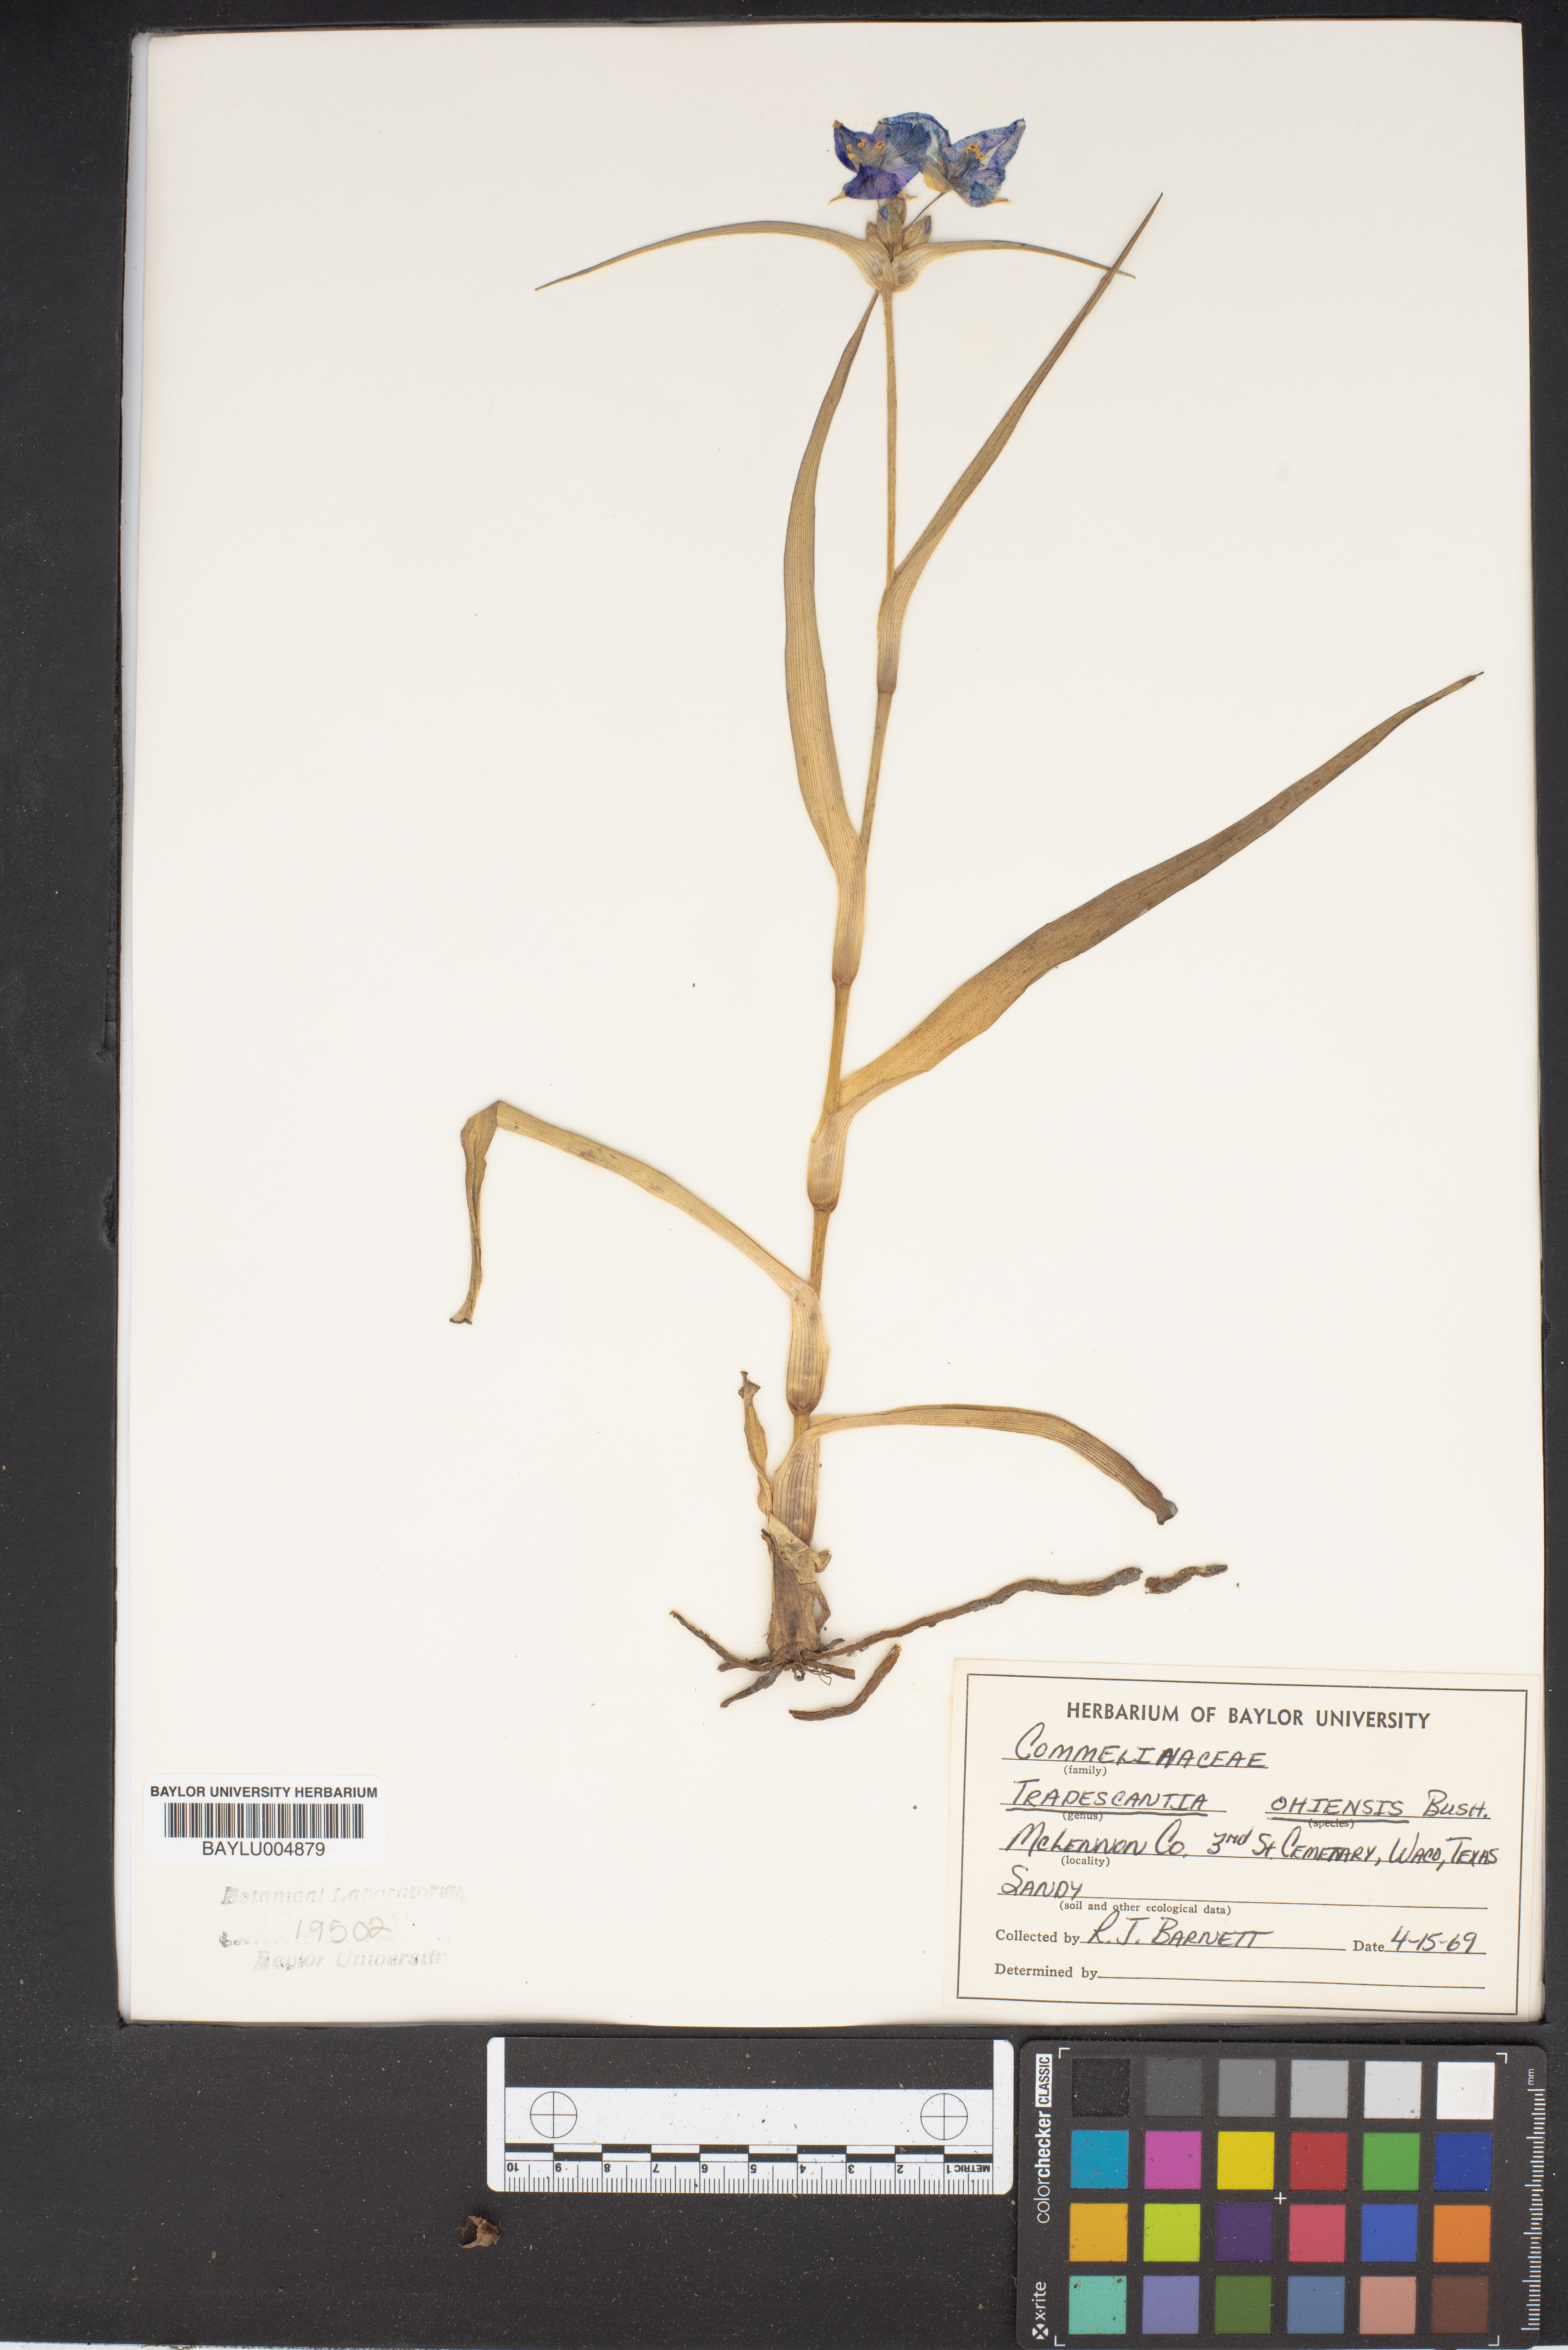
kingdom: Plantae
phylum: Tracheophyta
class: Liliopsida
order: Commelinales
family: Commelinaceae
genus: Tradescantia
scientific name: Tradescantia ohiensis
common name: Ohio spiderwort
